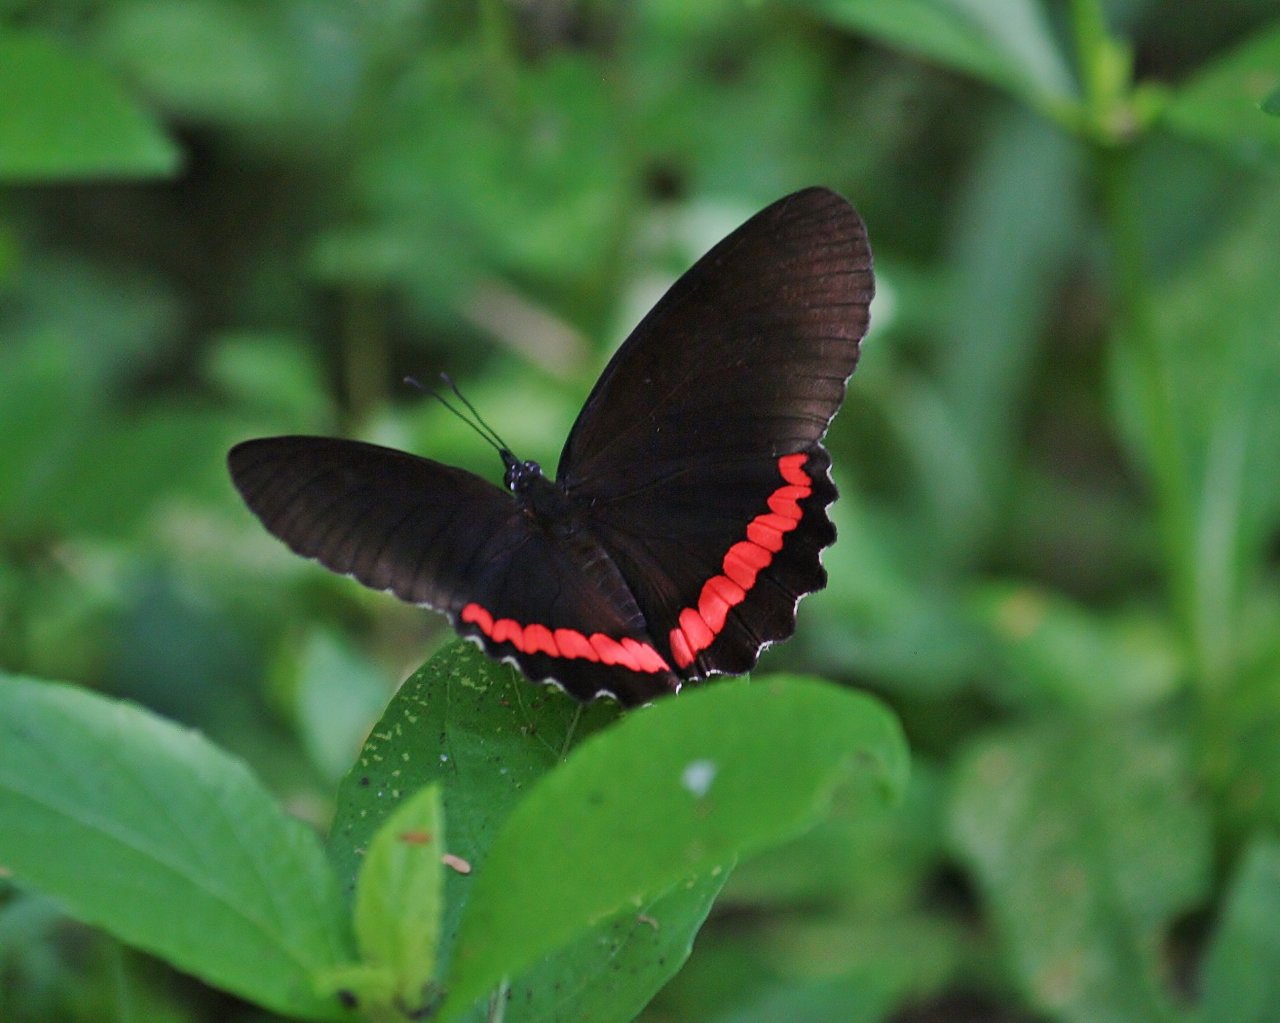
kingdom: Animalia
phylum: Arthropoda
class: Insecta
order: Lepidoptera
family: Sesiidae
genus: Sesia
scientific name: Sesia Biblis hyperia
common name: Red Rim
